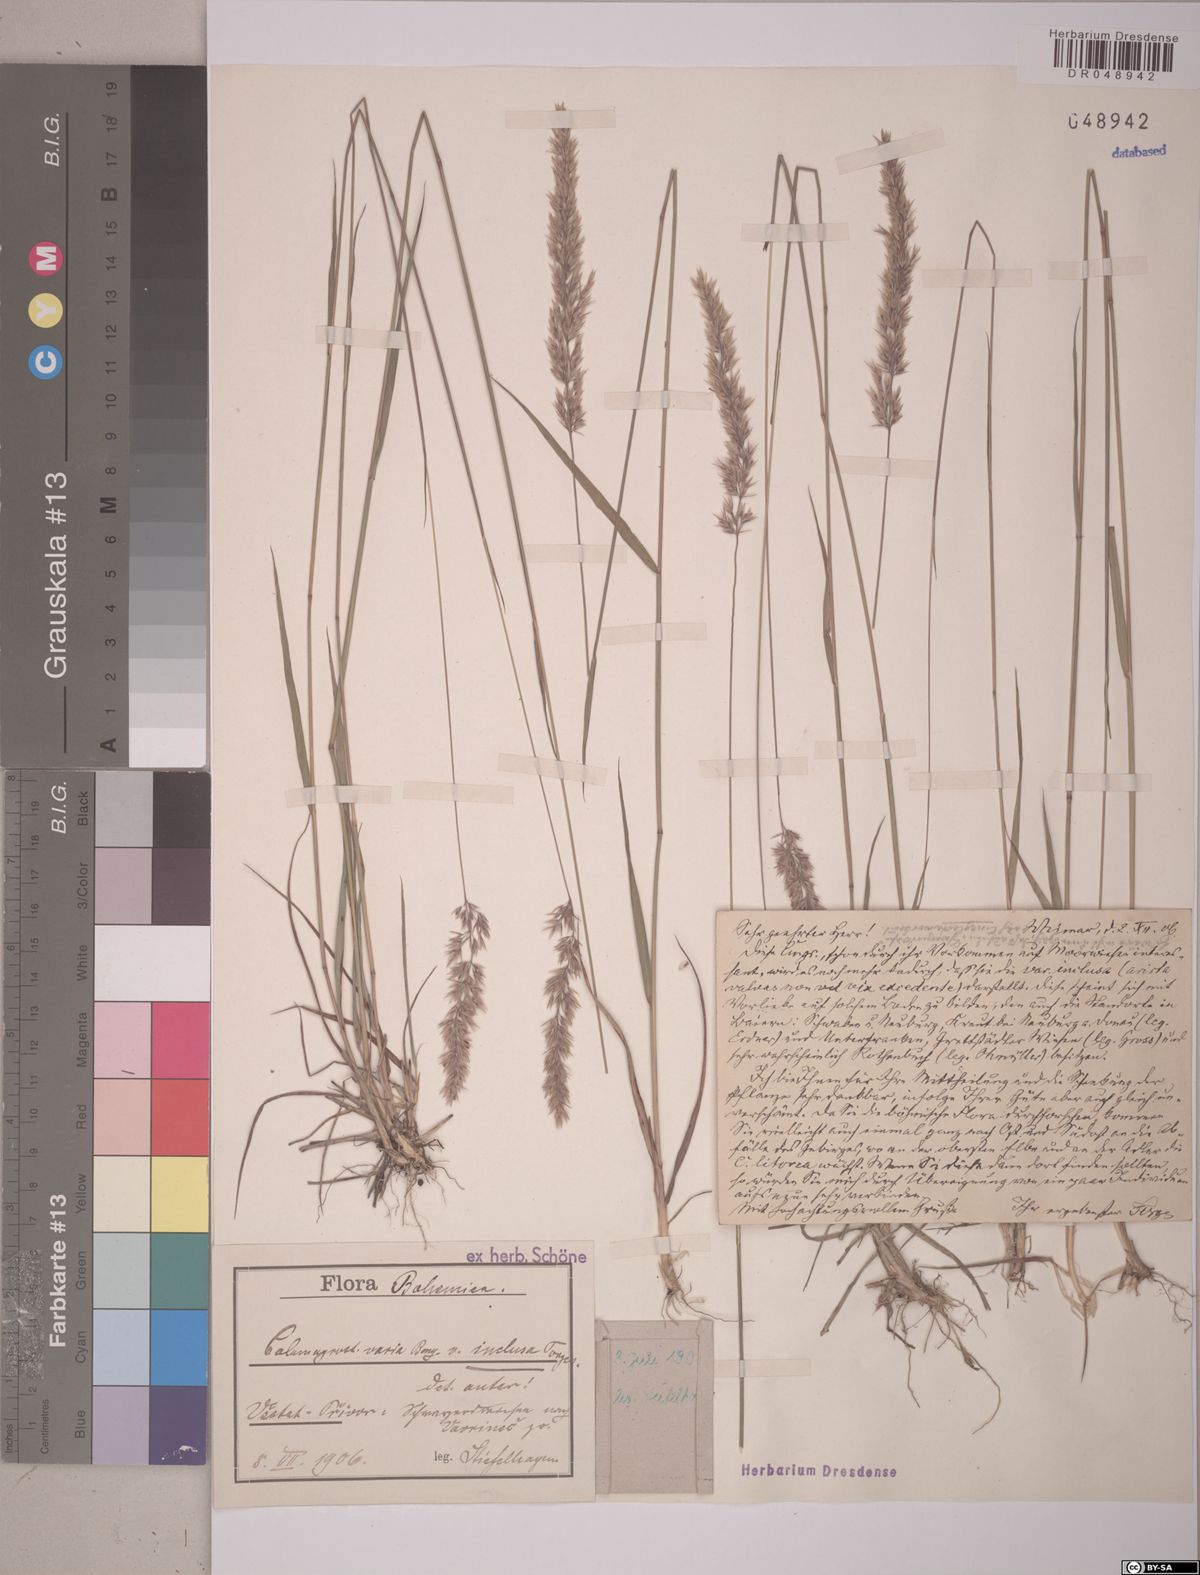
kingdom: Plantae
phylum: Tracheophyta
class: Liliopsida
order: Poales
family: Poaceae
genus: Calamagrostis
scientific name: Calamagrostis varia
